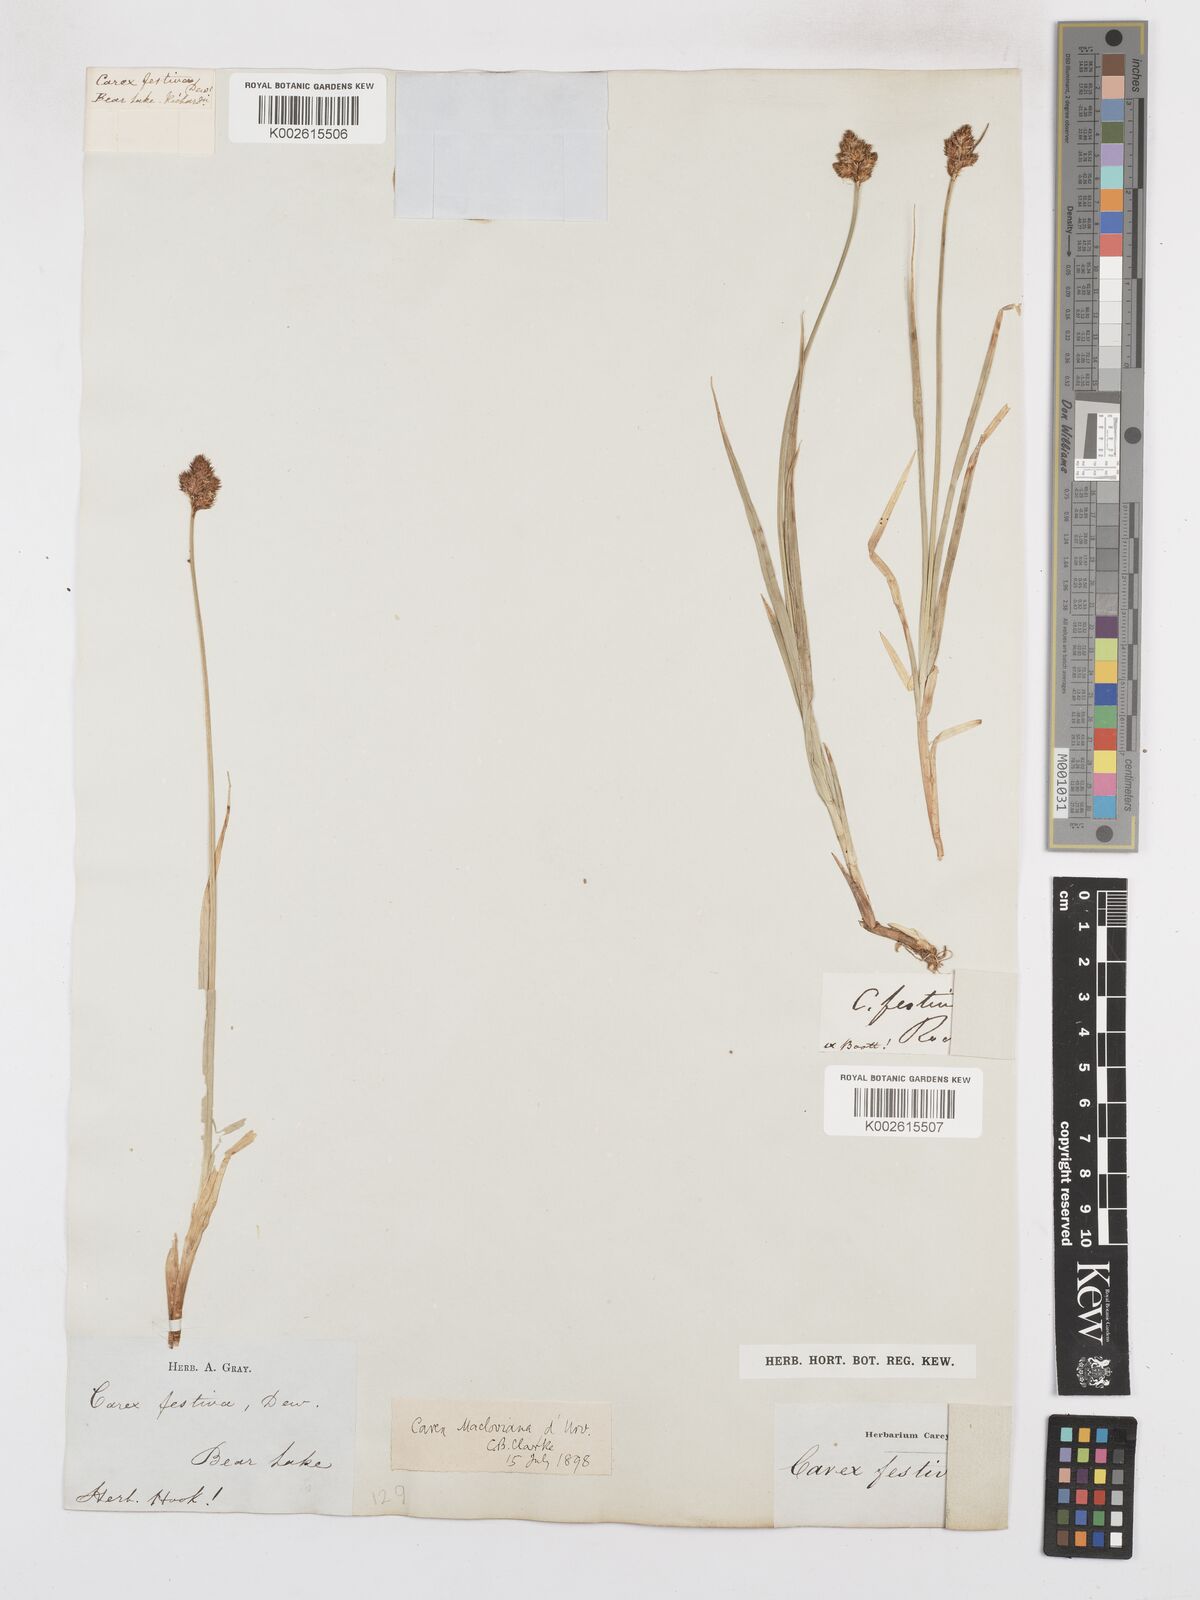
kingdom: Plantae
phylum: Tracheophyta
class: Liliopsida
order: Poales
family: Cyperaceae
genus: Carex
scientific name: Carex macloviana
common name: Falkland island sedge
